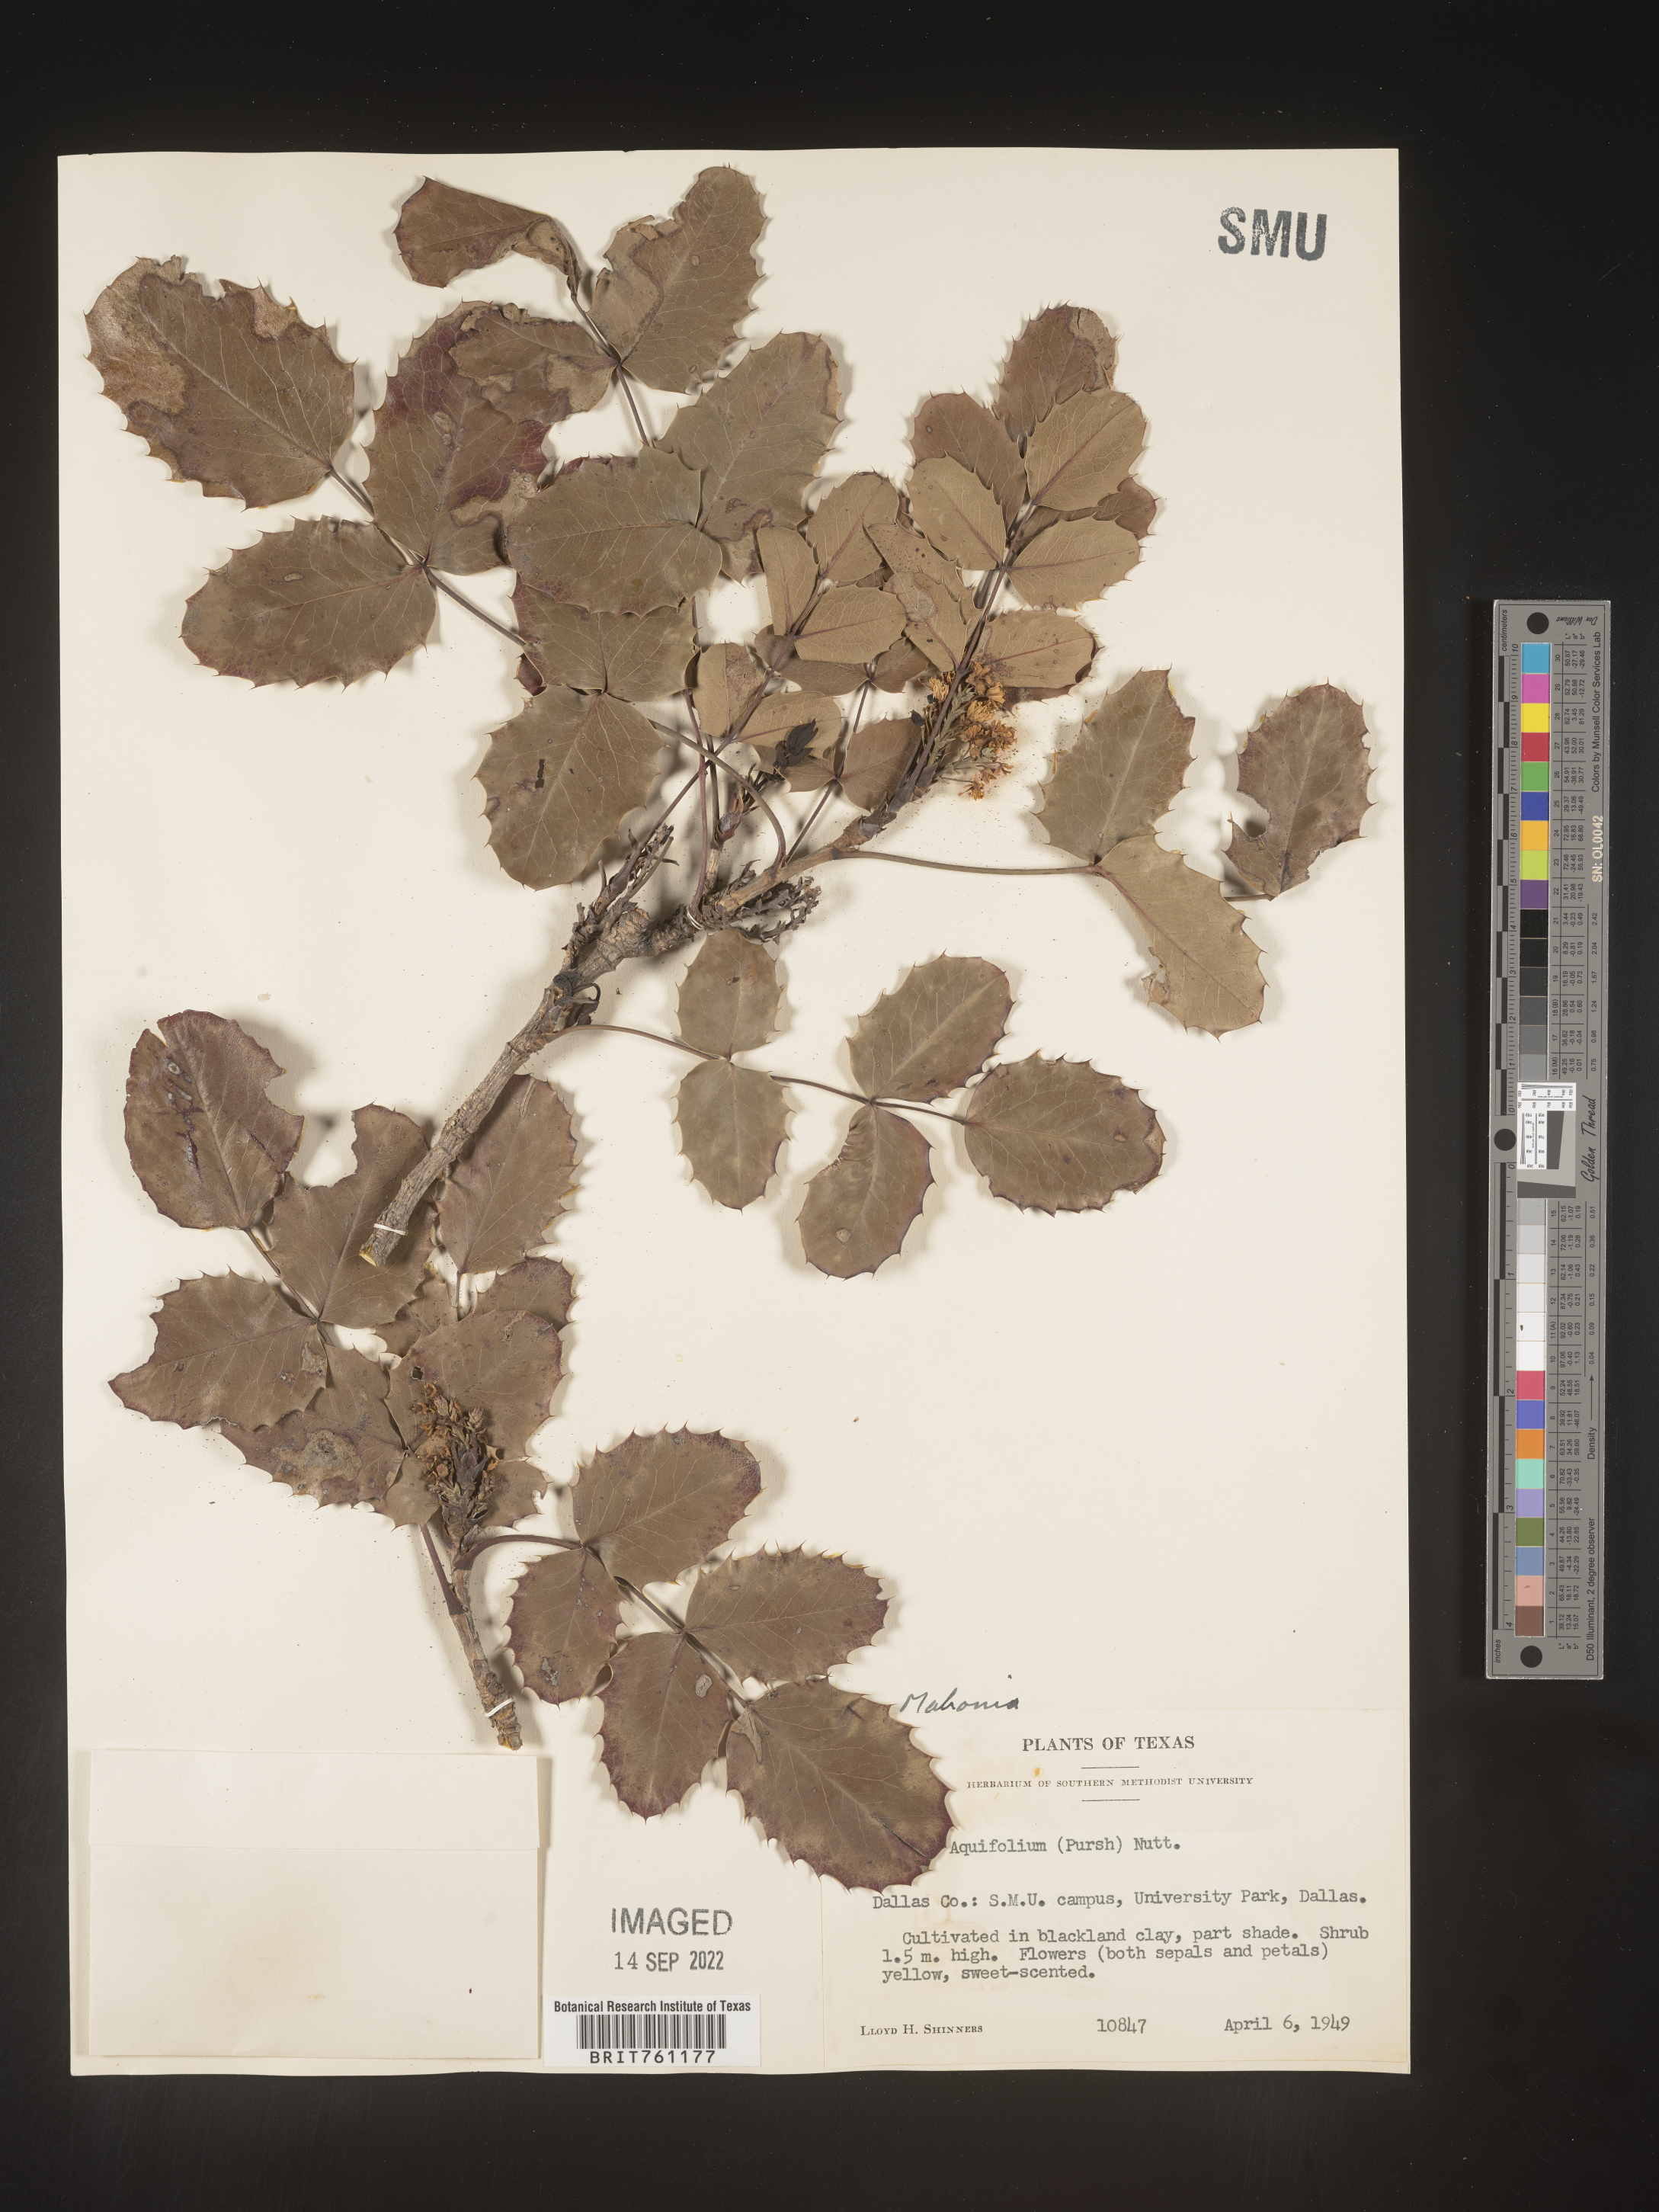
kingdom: Plantae
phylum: Tracheophyta
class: Magnoliopsida
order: Ranunculales
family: Berberidaceae
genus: Mahonia
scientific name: Mahonia
